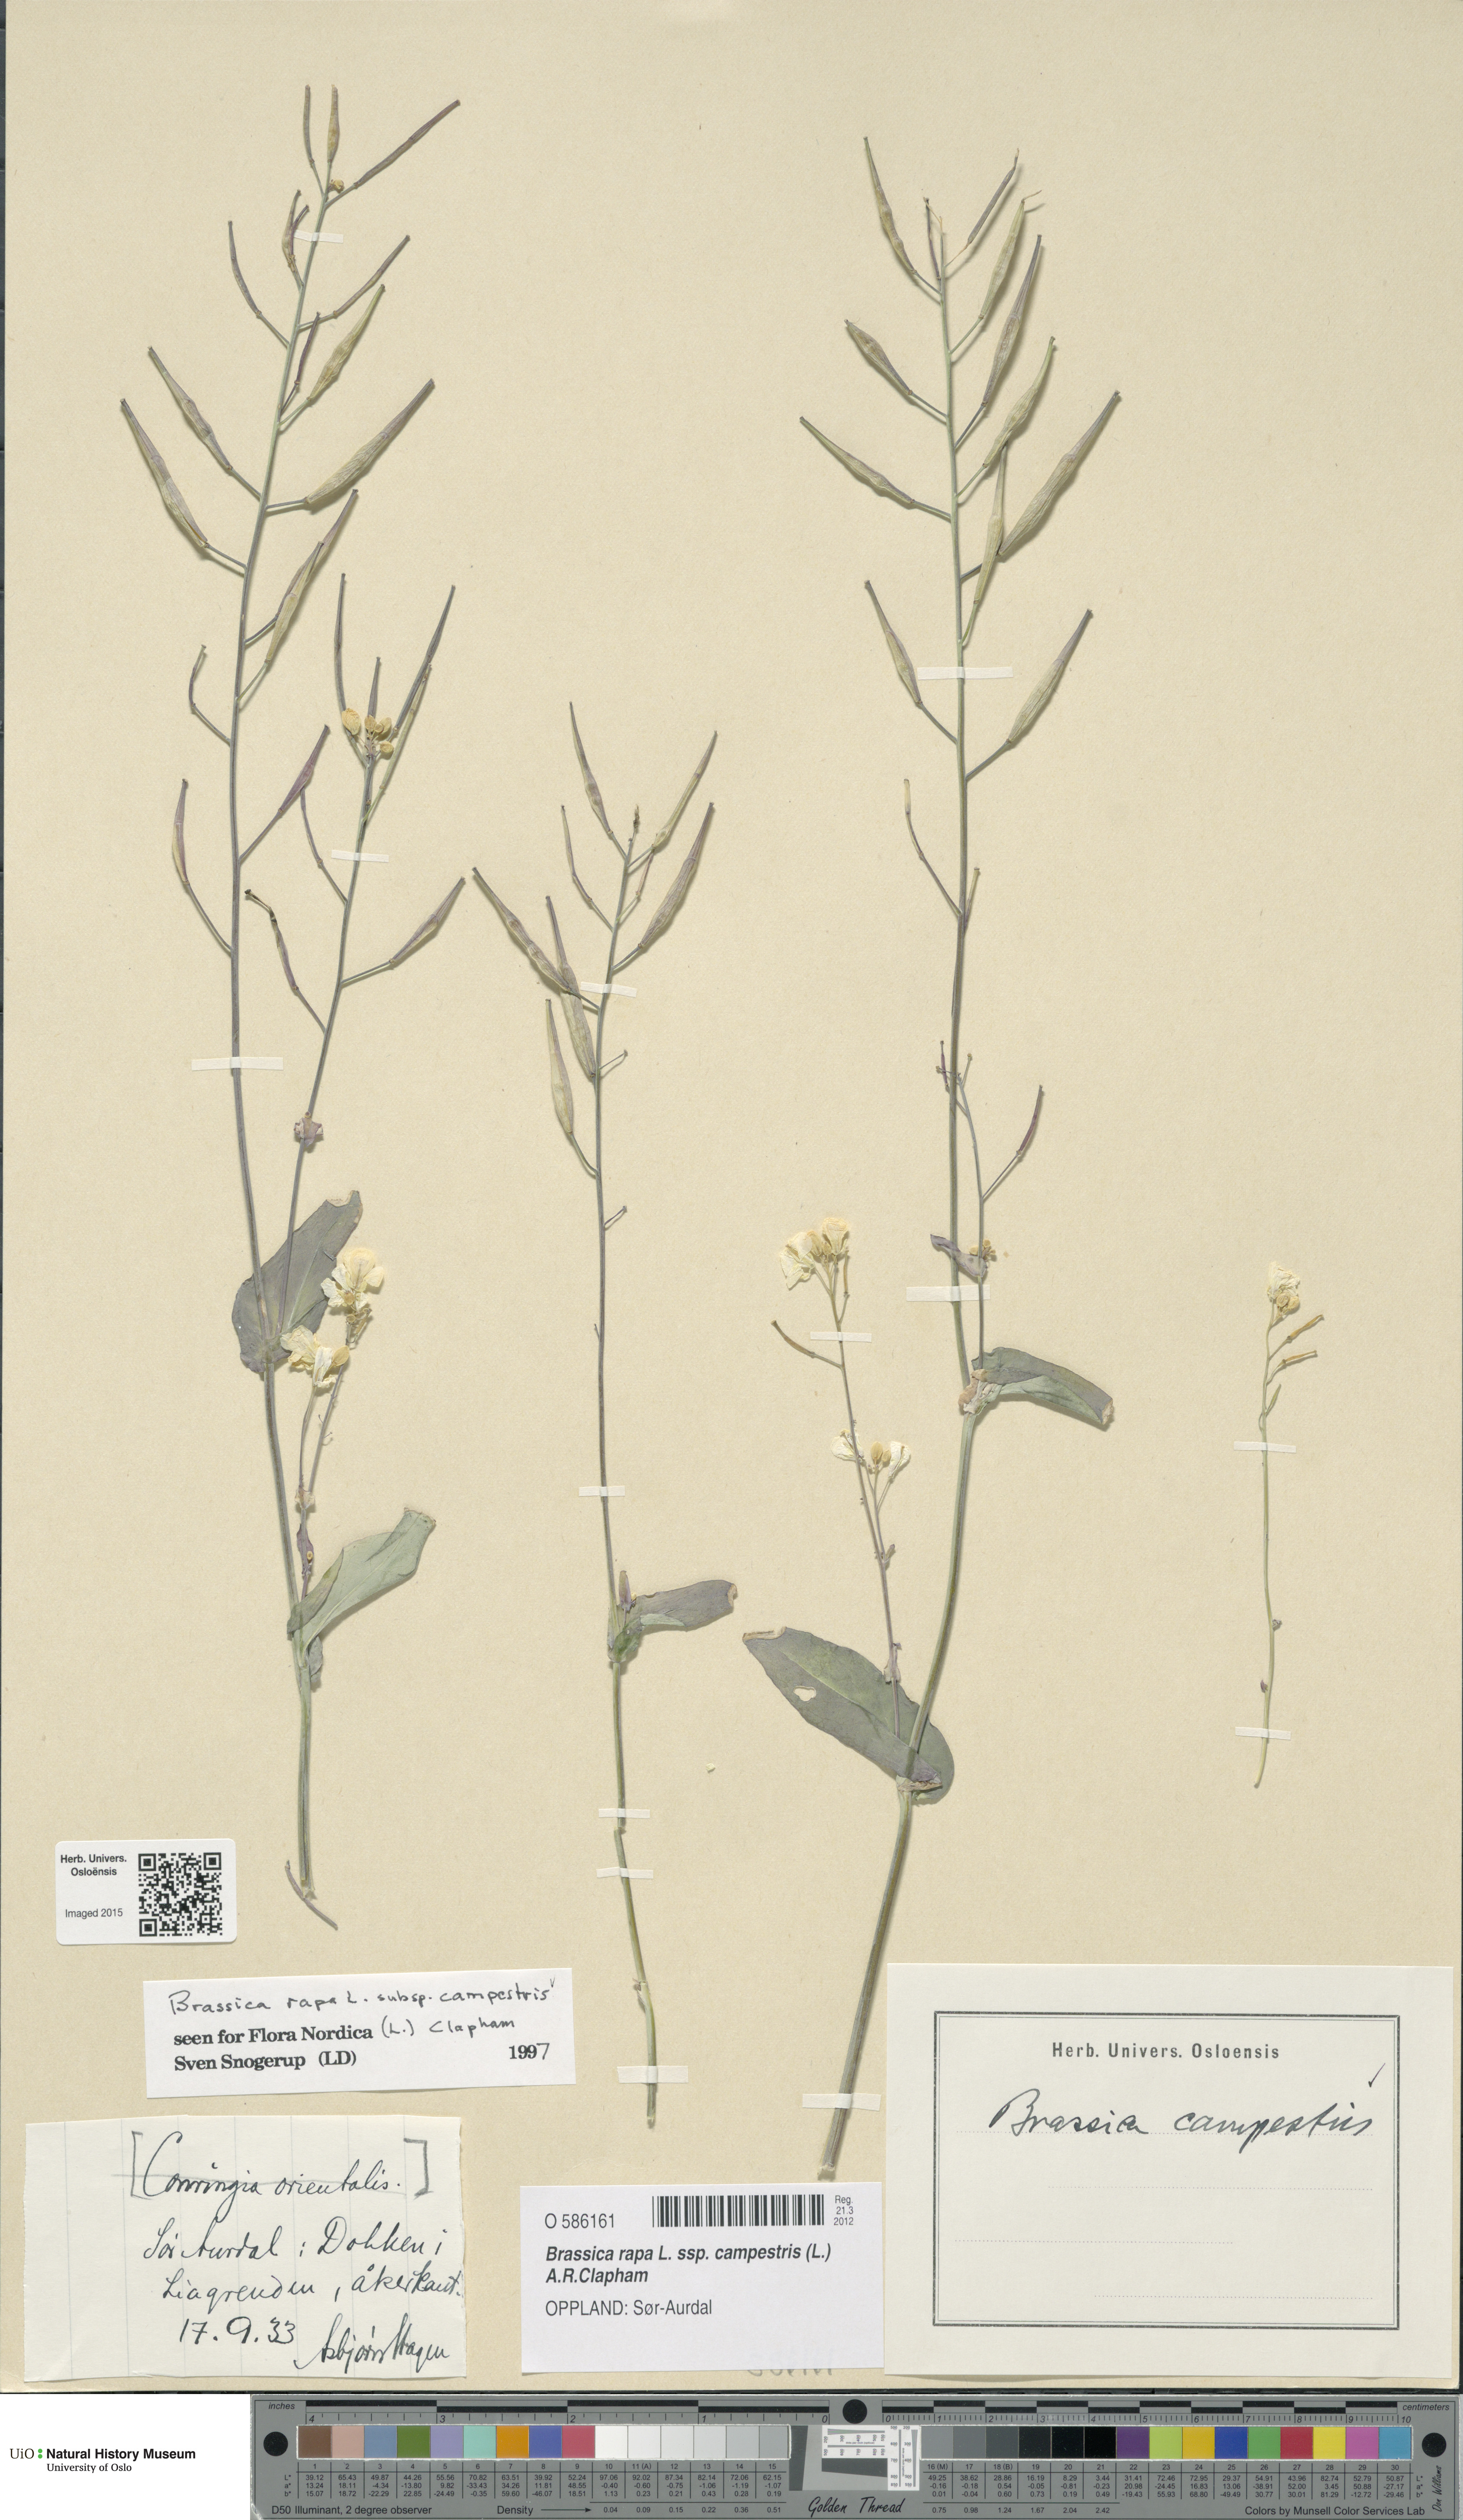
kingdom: Plantae
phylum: Tracheophyta
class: Magnoliopsida
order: Brassicales
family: Brassicaceae
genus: Brassica
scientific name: Brassica rapa
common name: Field mustard
